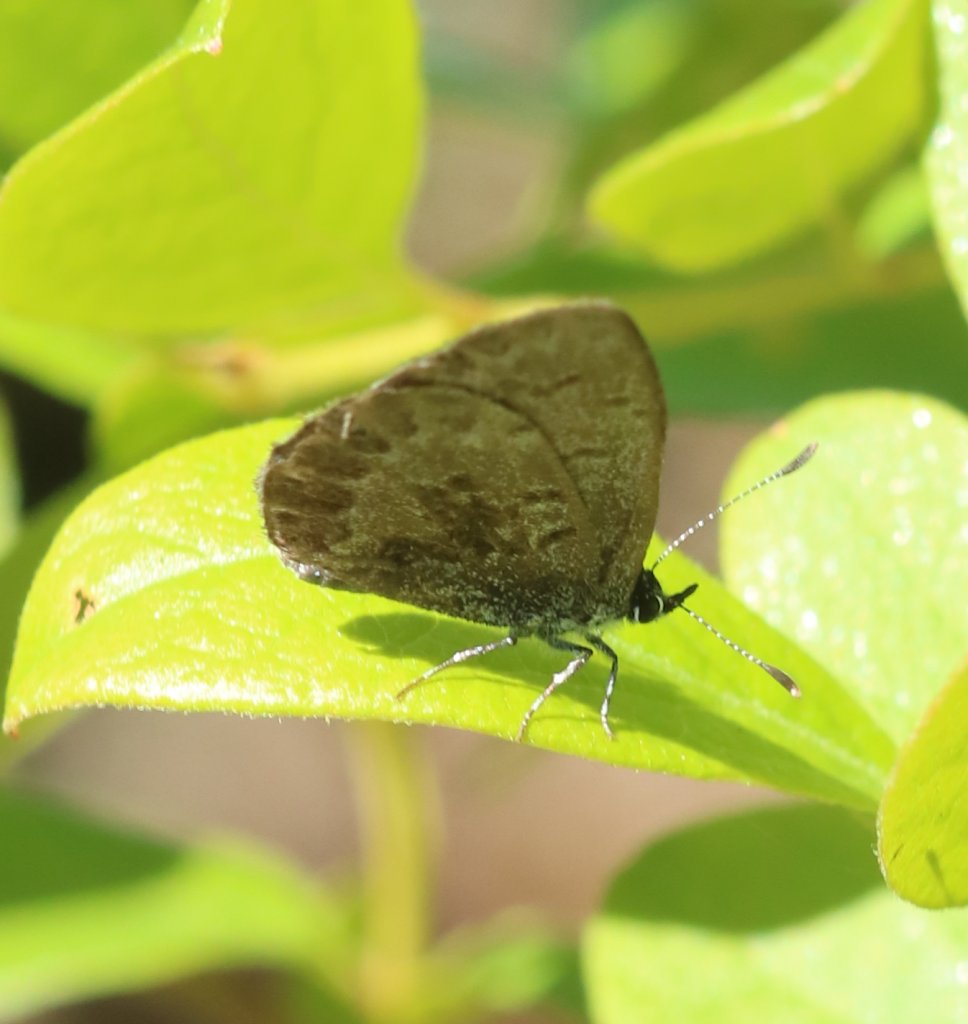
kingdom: Animalia
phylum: Arthropoda
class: Insecta
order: Lepidoptera
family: Lycaenidae
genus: Celastrina
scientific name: Celastrina
